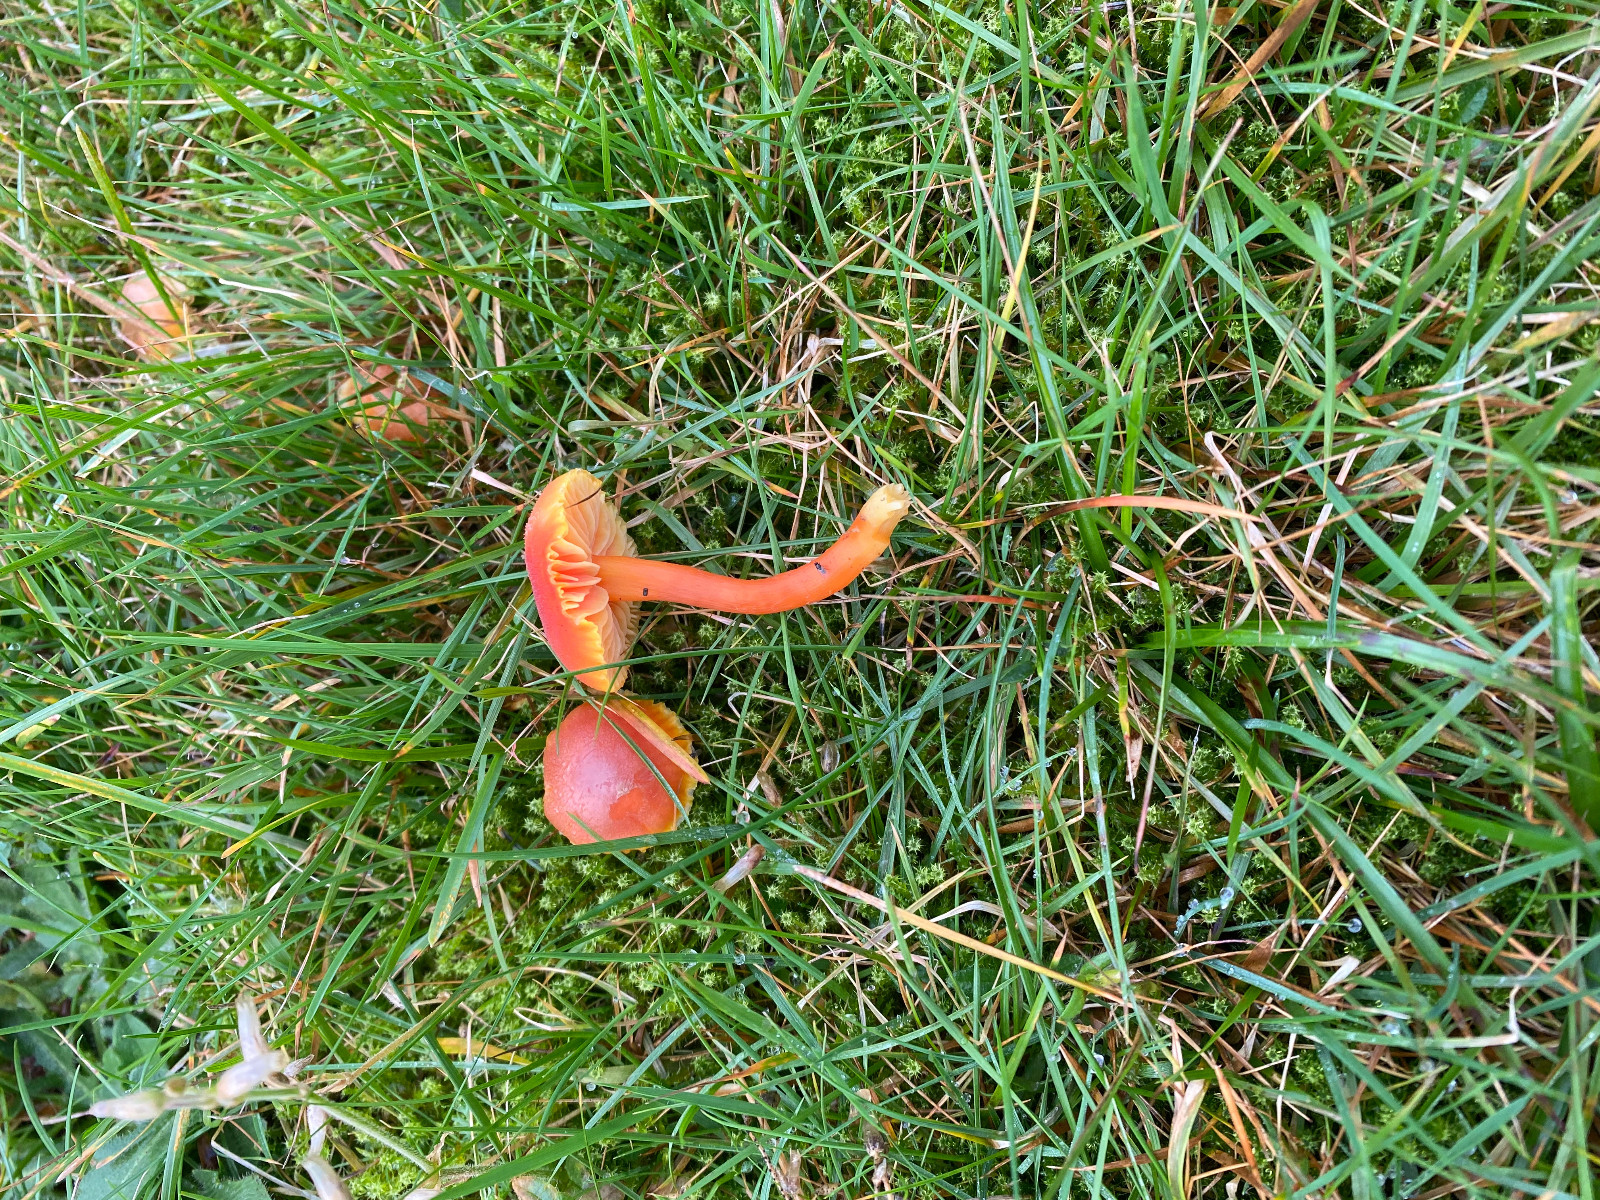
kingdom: Fungi
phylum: Basidiomycota
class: Agaricomycetes
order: Agaricales
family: Hygrophoraceae
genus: Hygrocybe
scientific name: Hygrocybe miniata
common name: mønje-vokshat
